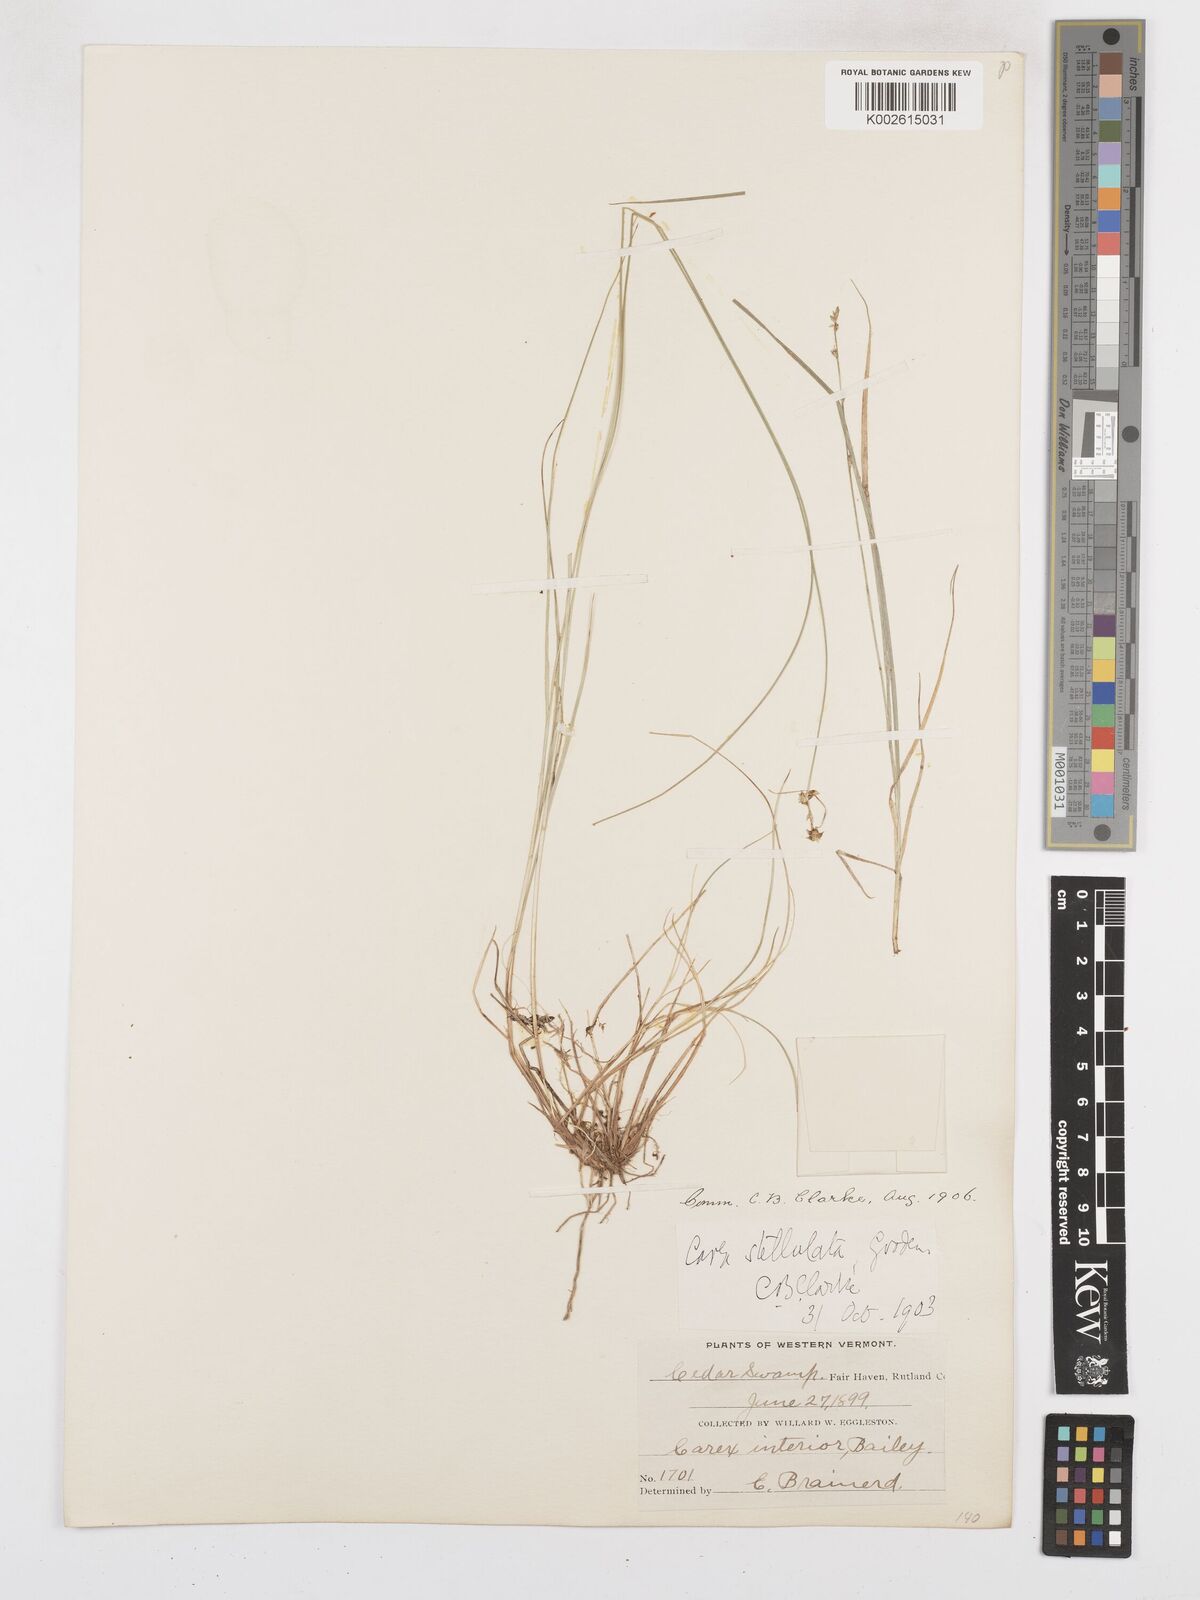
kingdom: Plantae
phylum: Tracheophyta
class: Liliopsida
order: Poales
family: Cyperaceae
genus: Carex
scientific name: Carex interior
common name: Inland sedge
